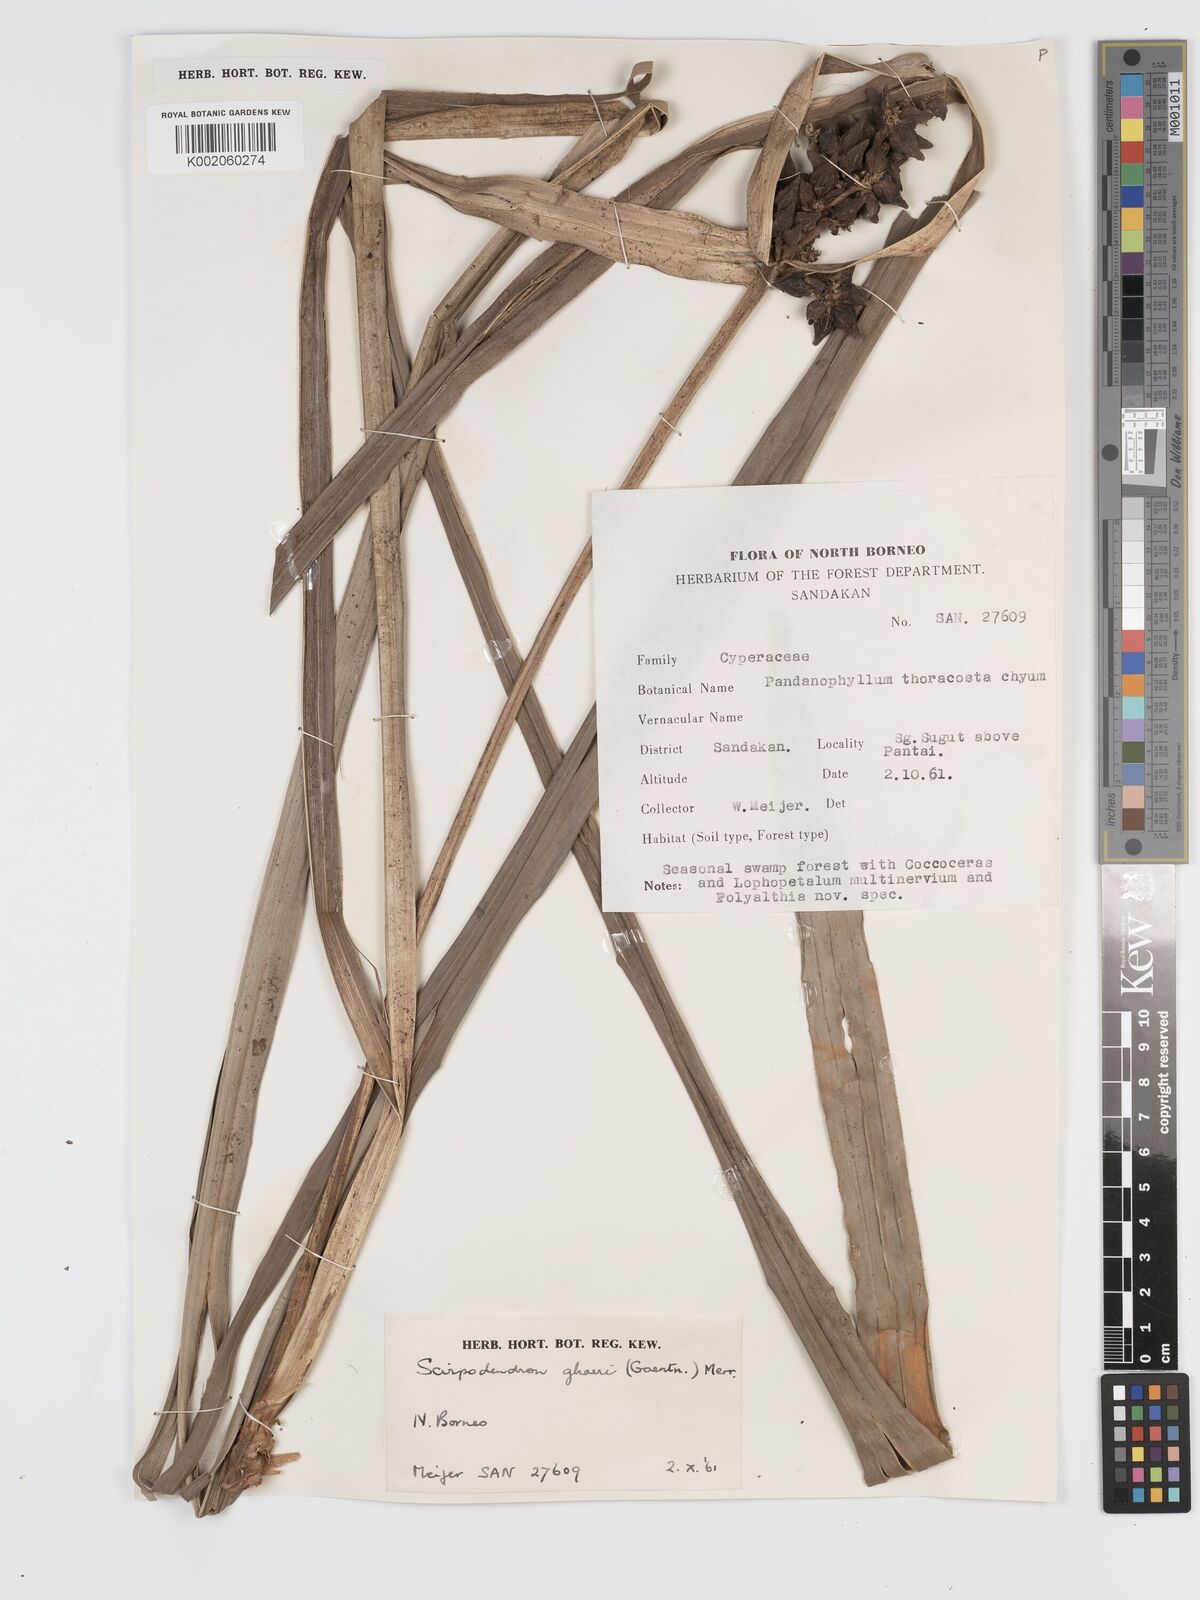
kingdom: Plantae
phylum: Tracheophyta
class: Liliopsida
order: Poales
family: Cyperaceae
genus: Scirpodendron
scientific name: Scirpodendron ghaeri
